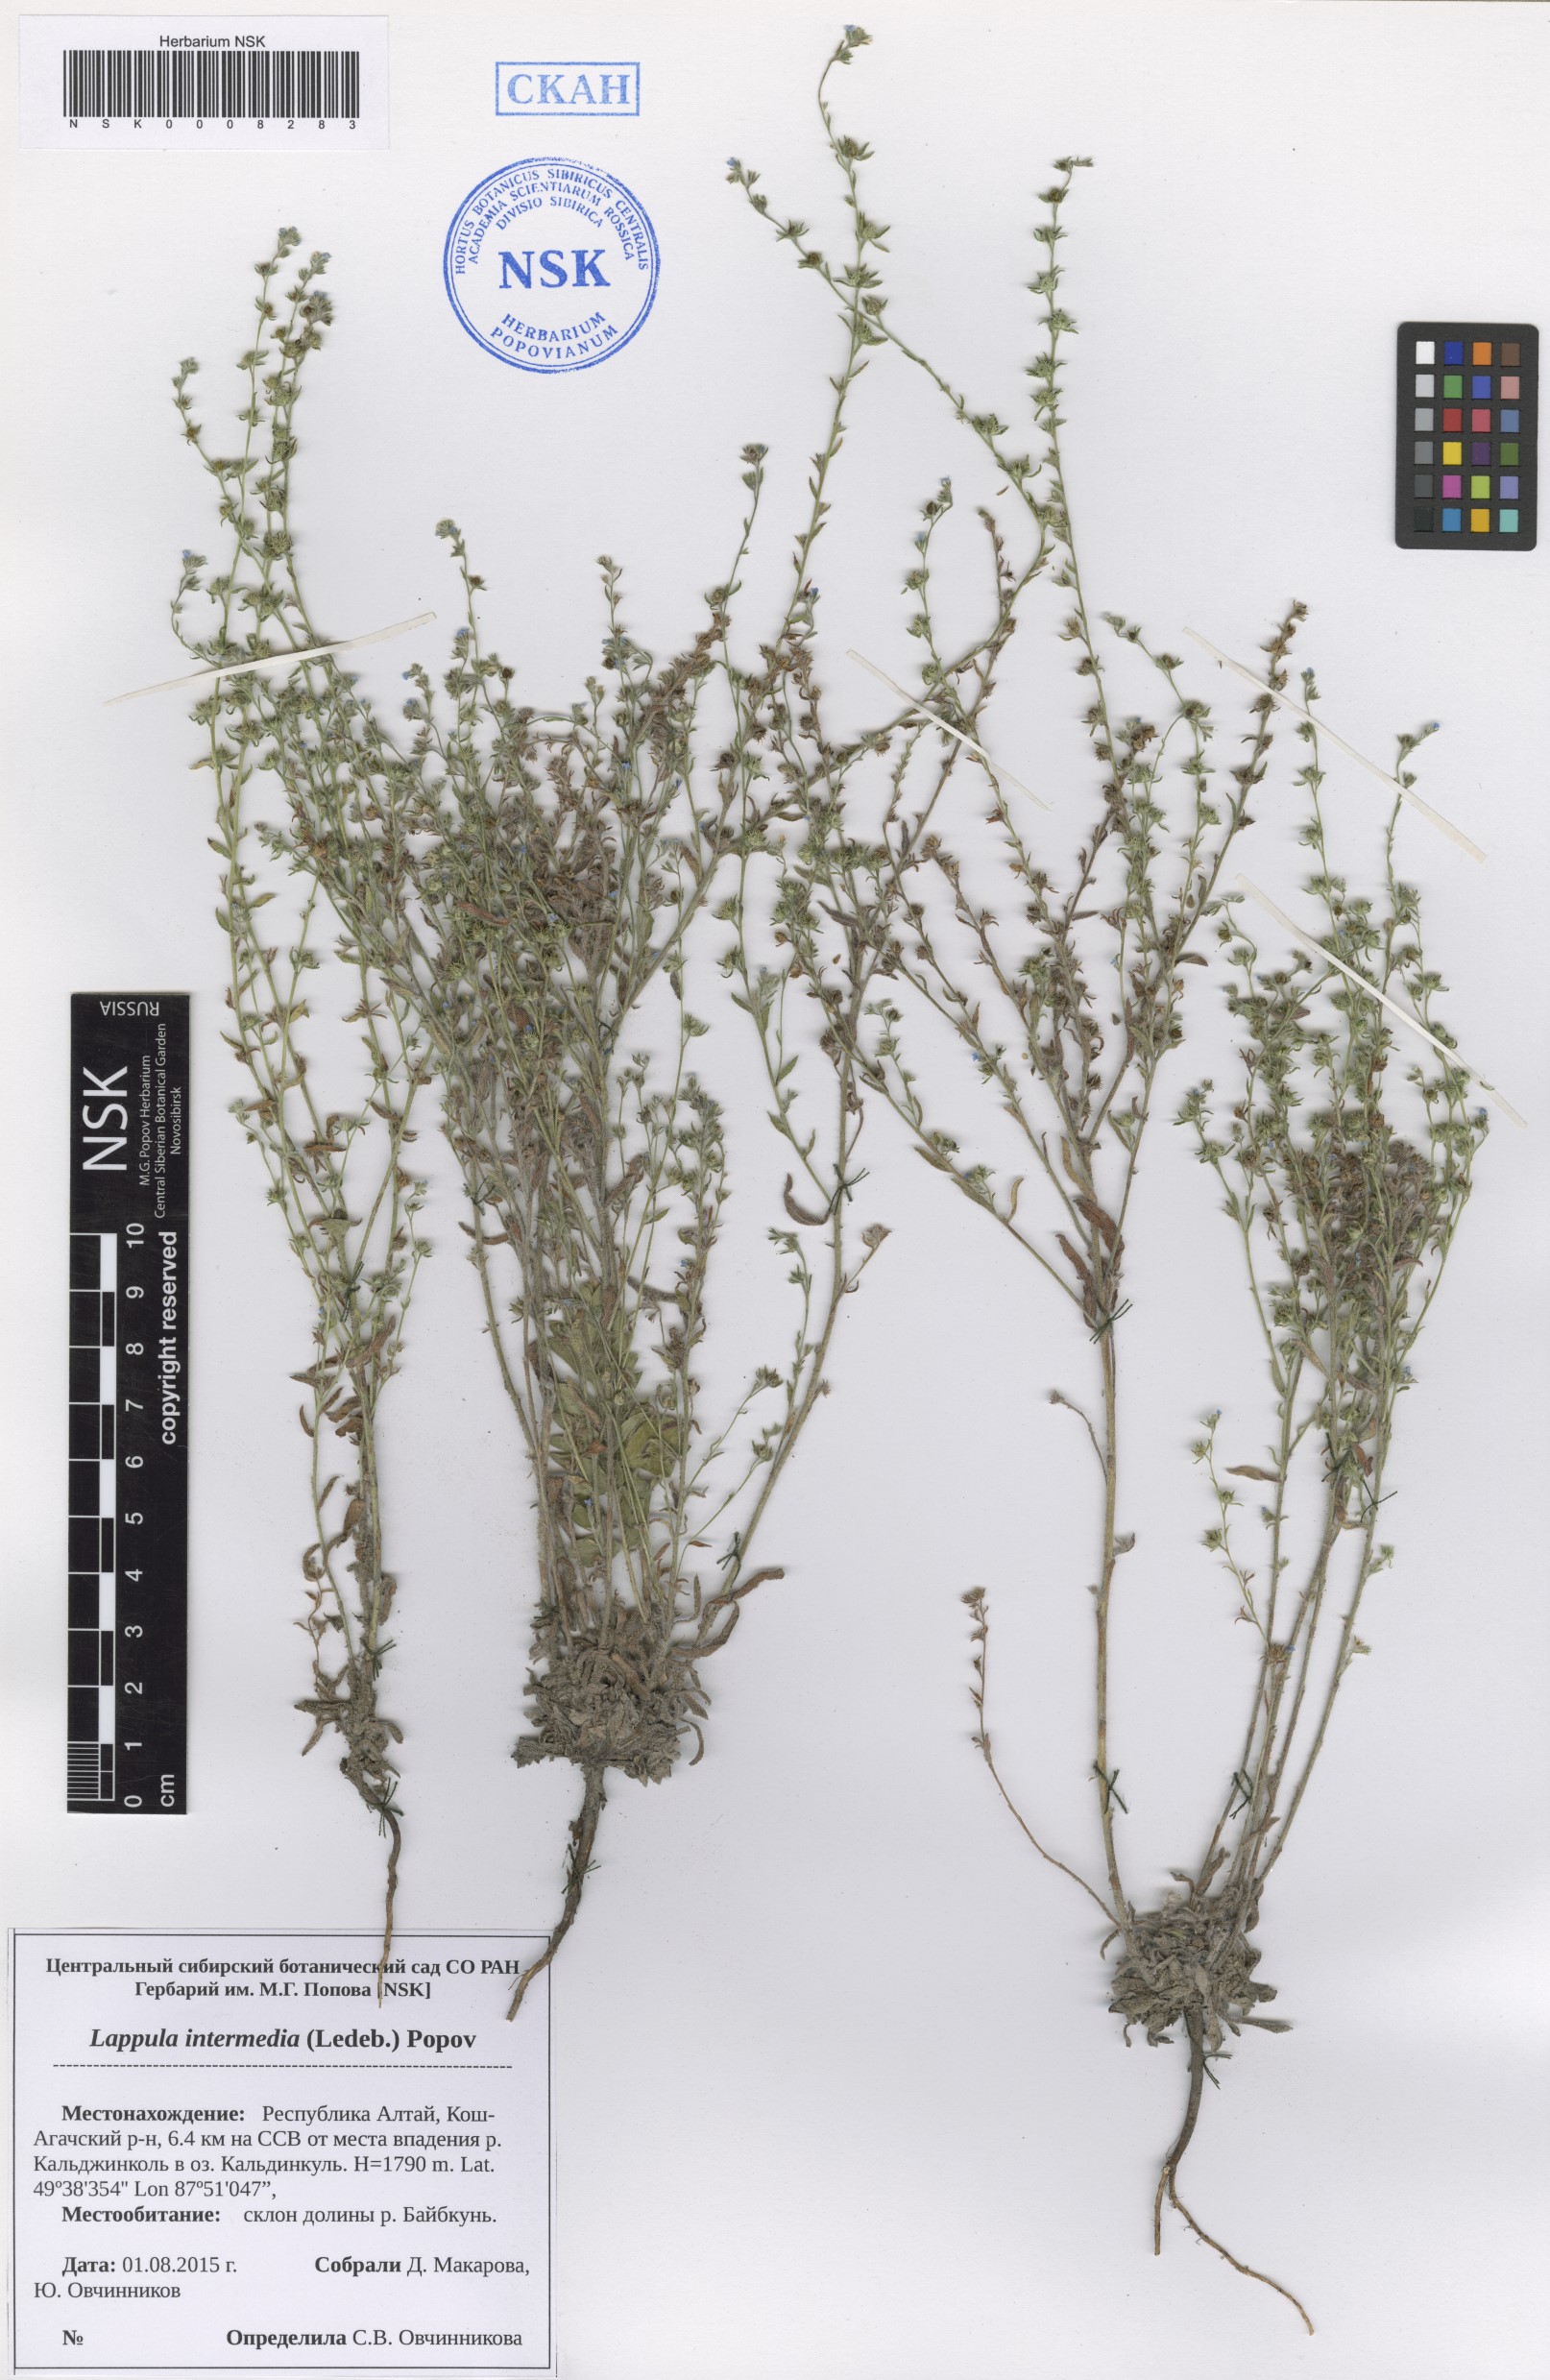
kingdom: Plantae
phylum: Tracheophyta
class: Magnoliopsida
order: Boraginales
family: Boraginaceae
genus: Lappula
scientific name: Lappula intermedia
